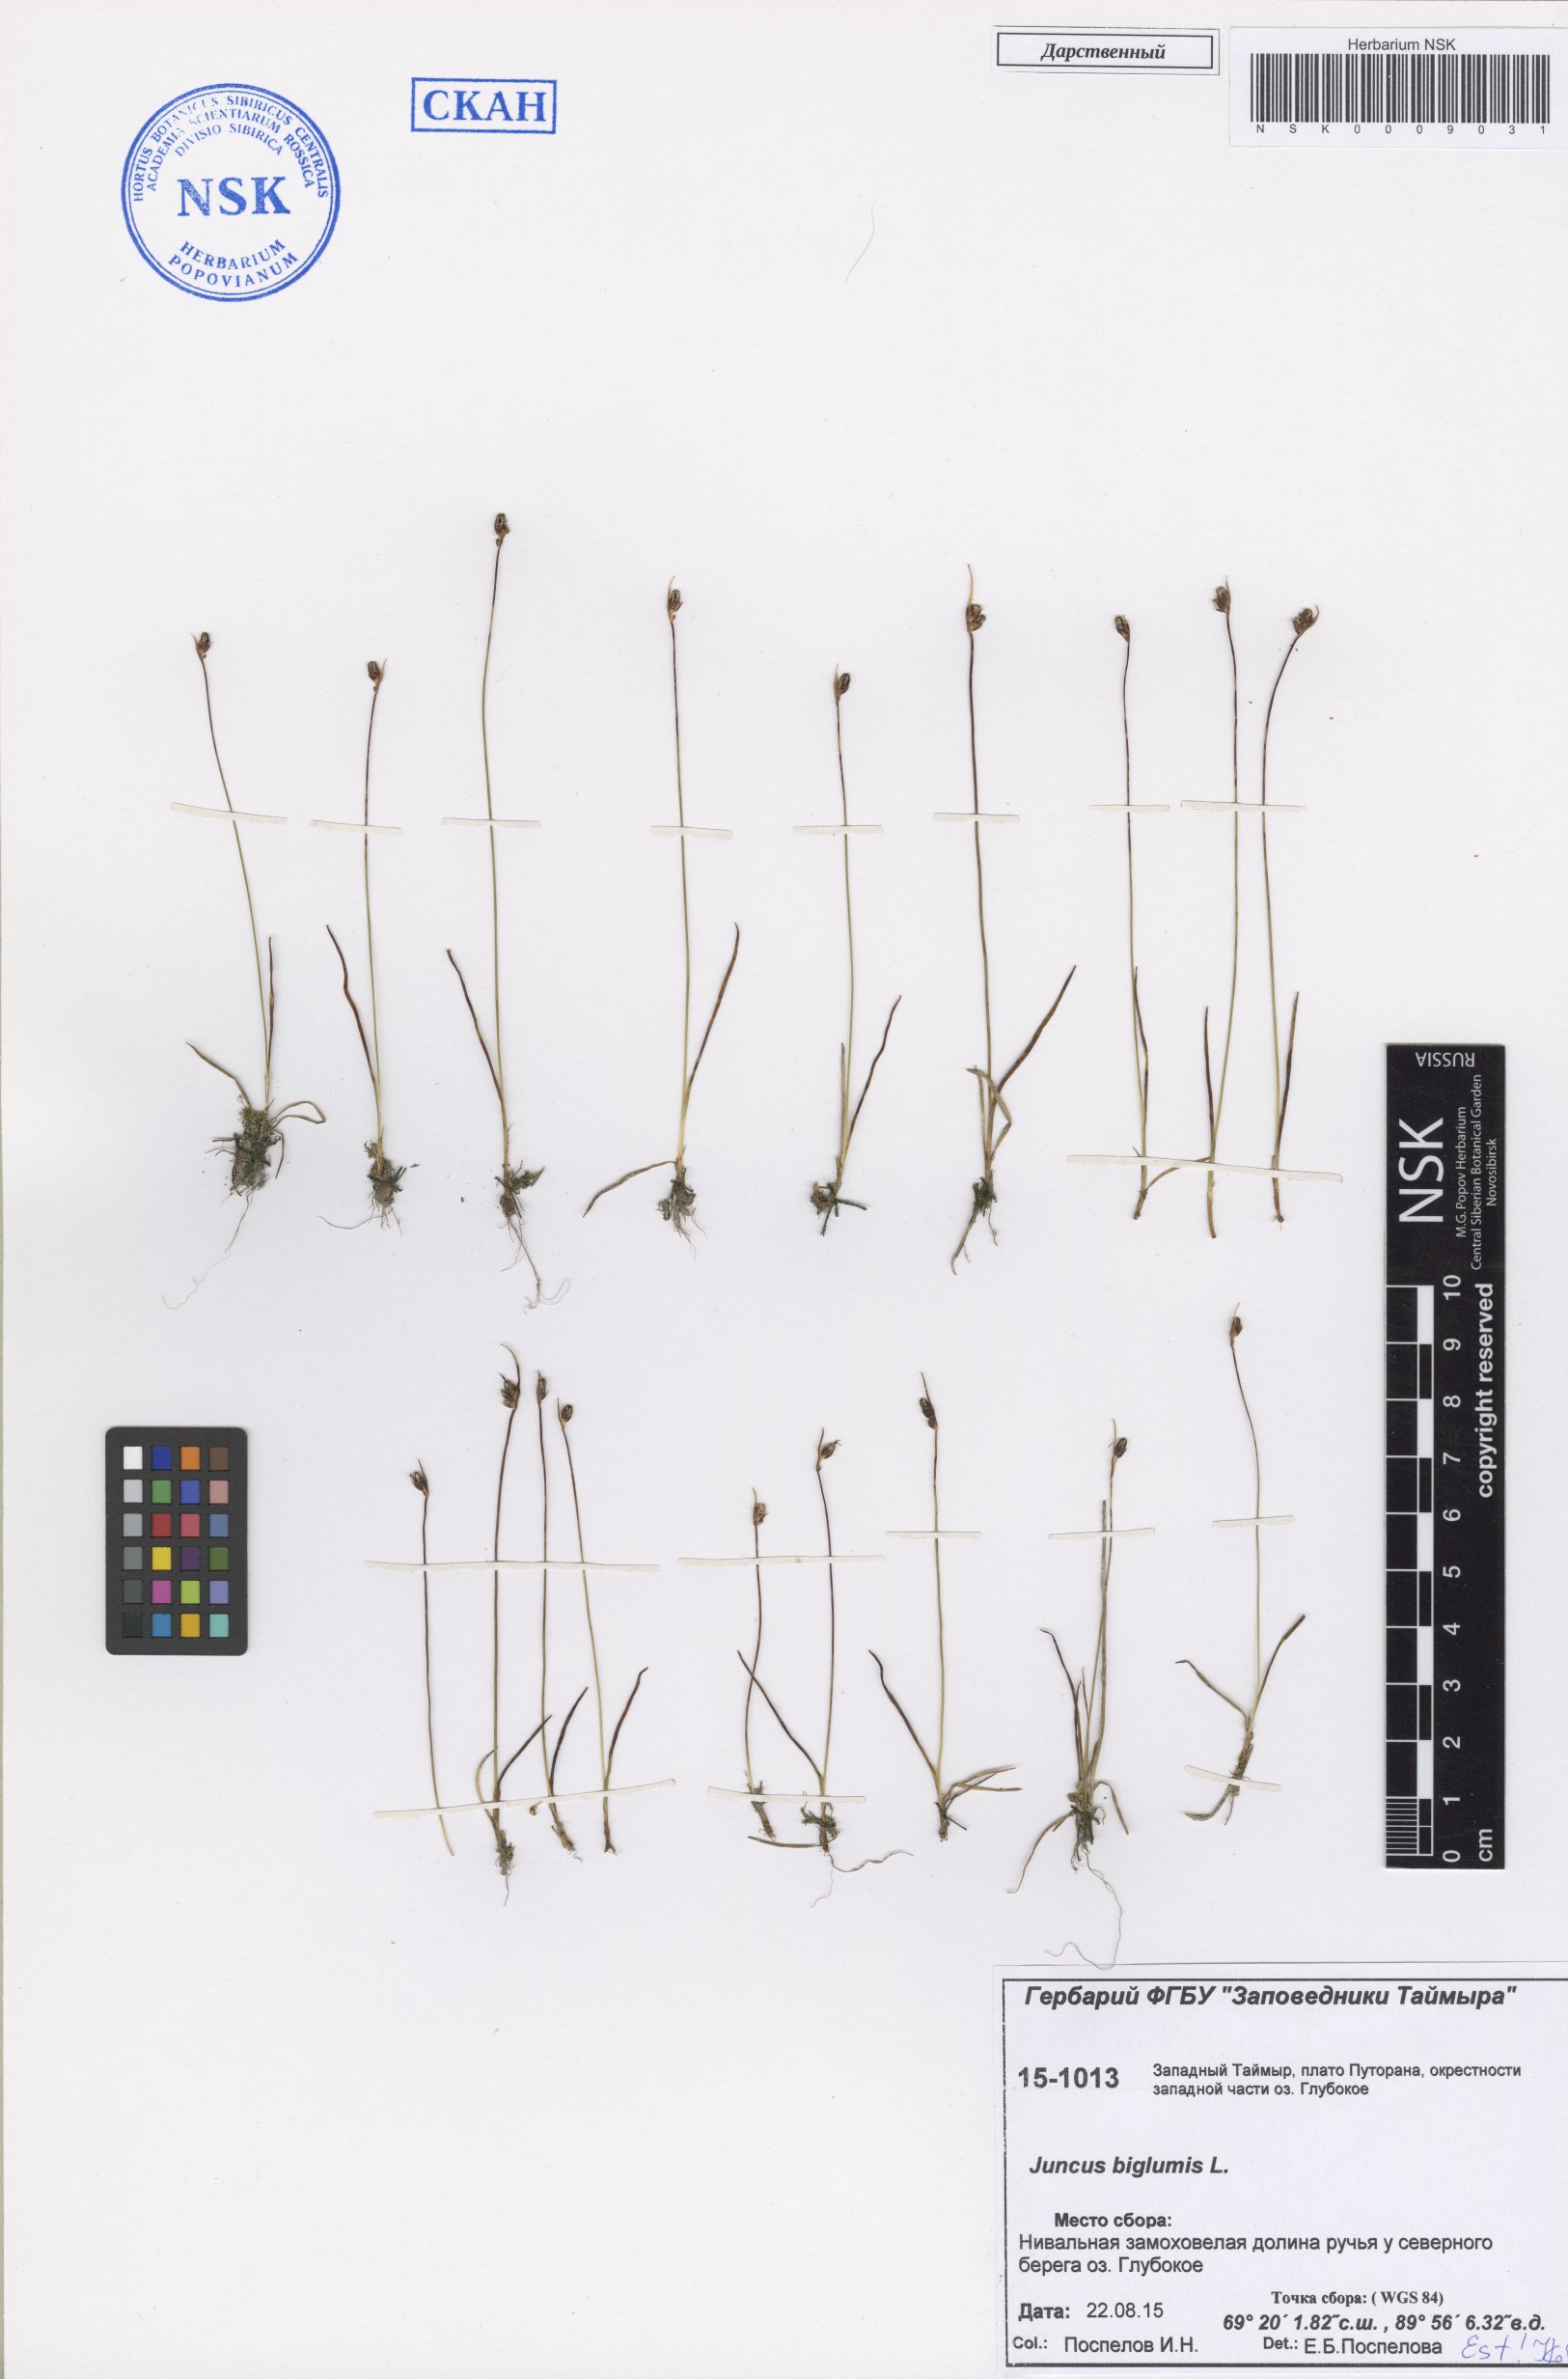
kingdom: Plantae
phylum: Tracheophyta
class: Liliopsida
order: Poales
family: Juncaceae
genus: Juncus
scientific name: Juncus biglumis
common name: Two-flowered rush
